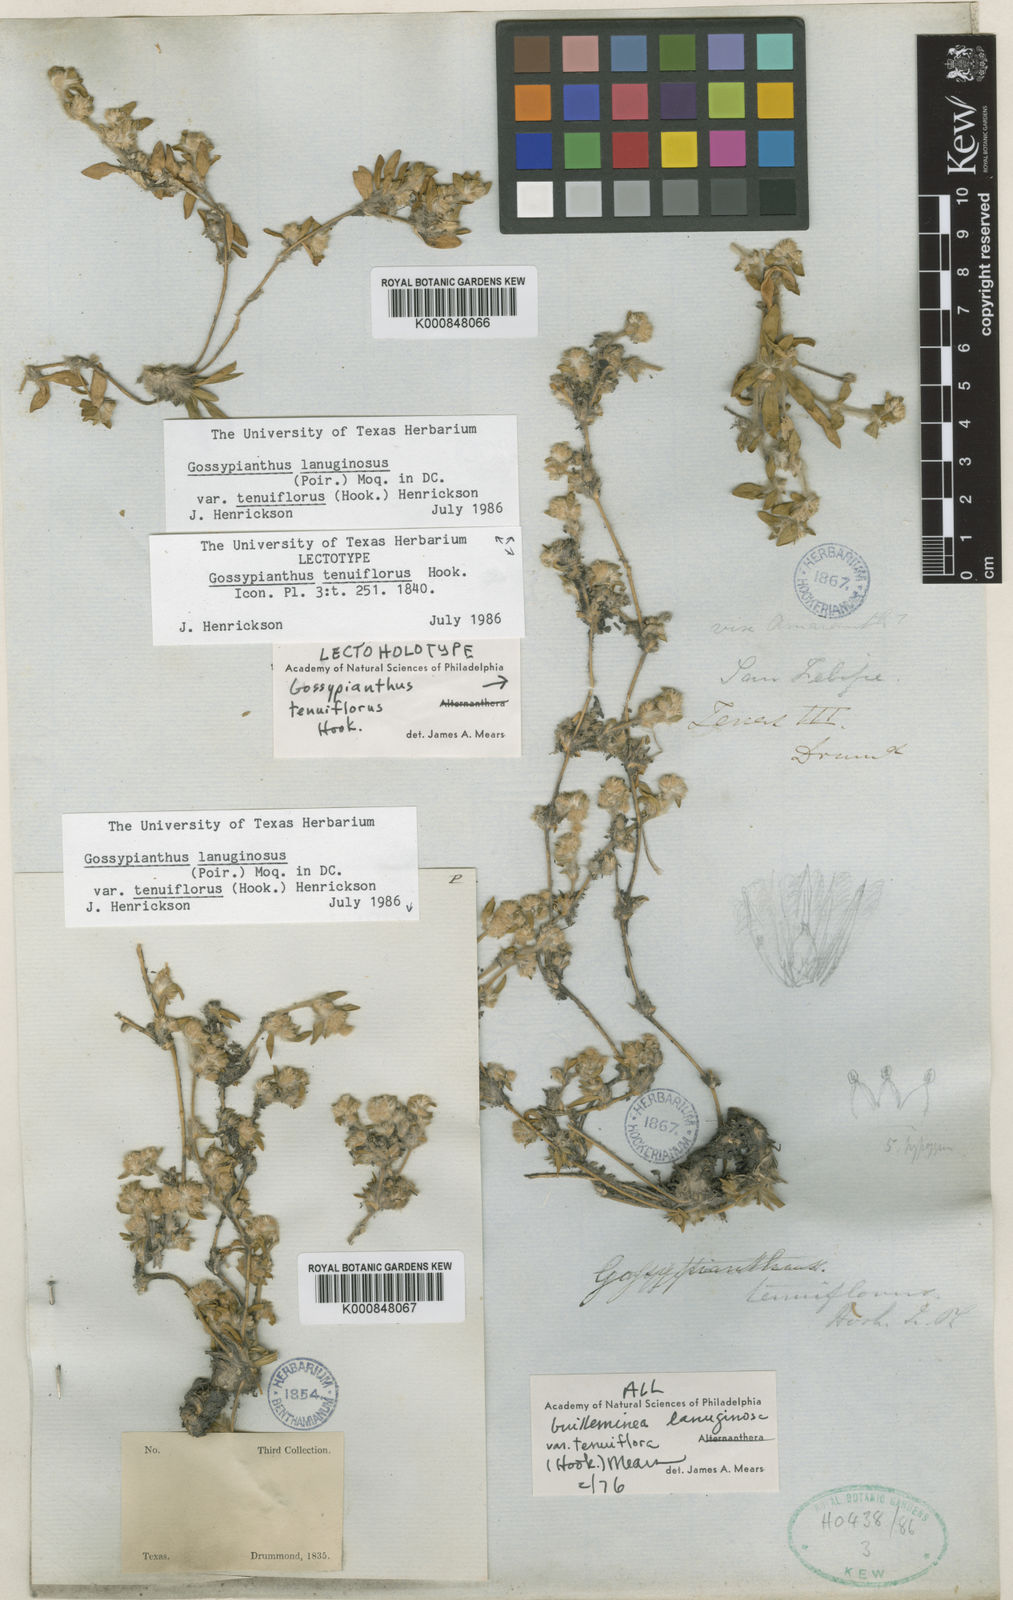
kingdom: Plantae
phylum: Tracheophyta
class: Magnoliopsida
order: Caryophyllales
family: Amaranthaceae
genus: Gomphrena
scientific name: Gomphrena lanuparonychioides
